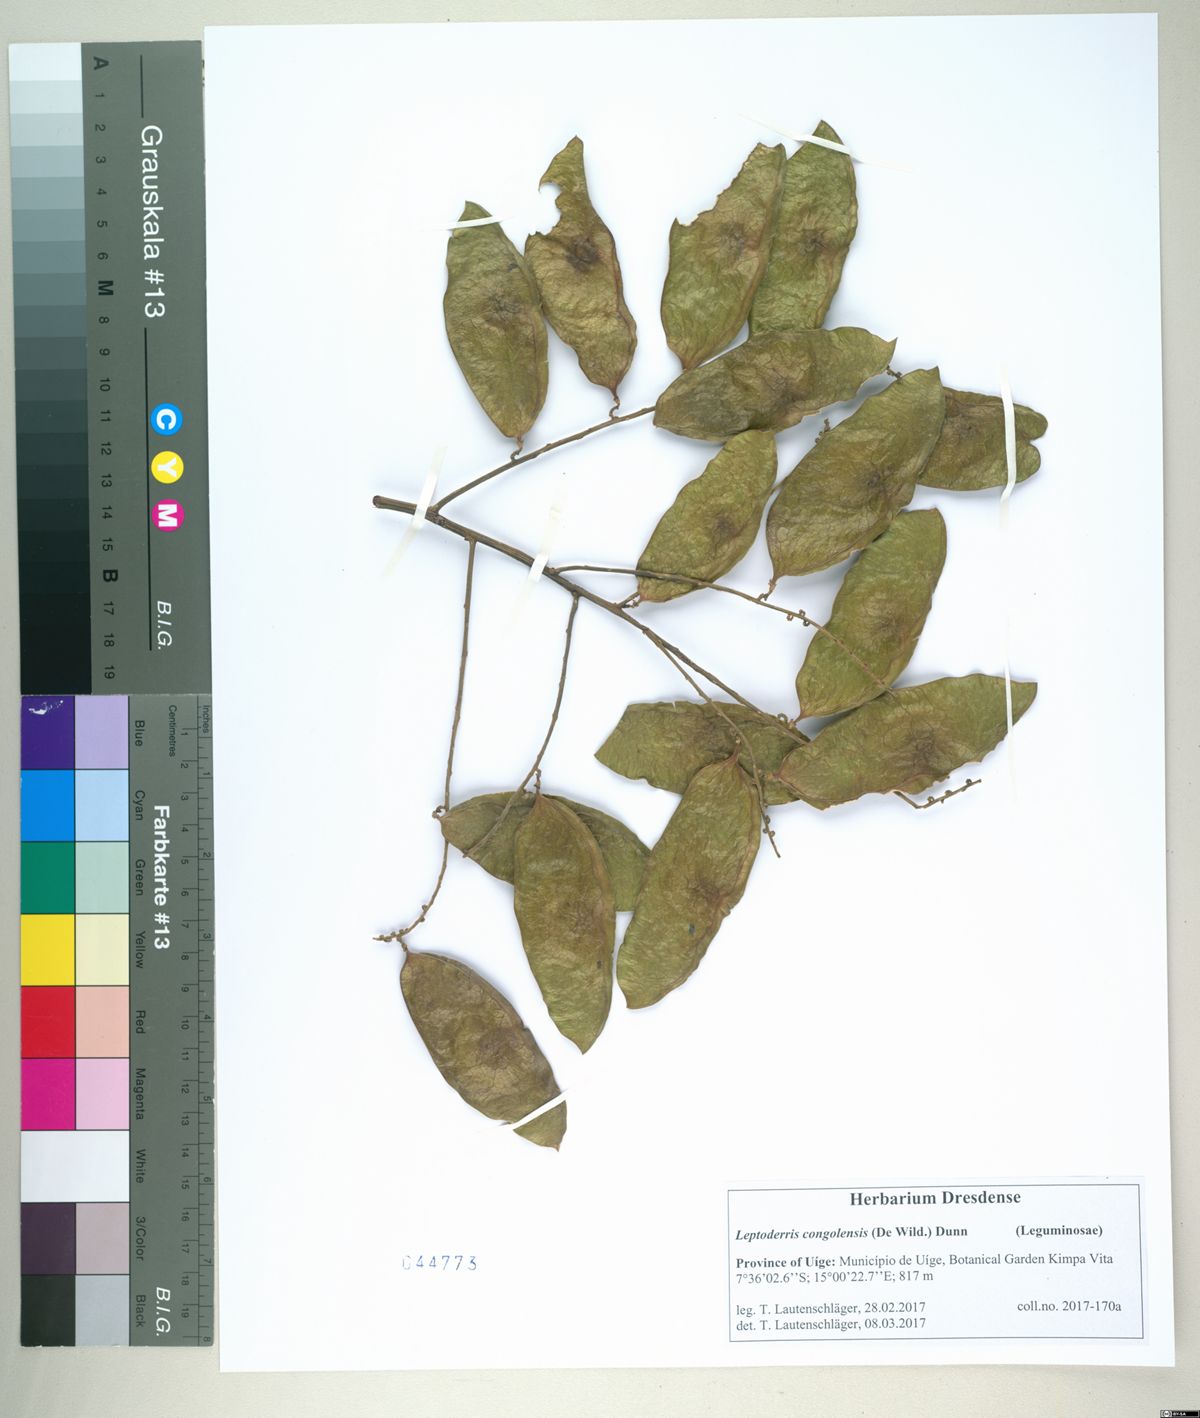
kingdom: Plantae
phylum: Tracheophyta
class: Magnoliopsida
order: Fabales
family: Fabaceae
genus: Leptoderris
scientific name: Leptoderris congolensis
